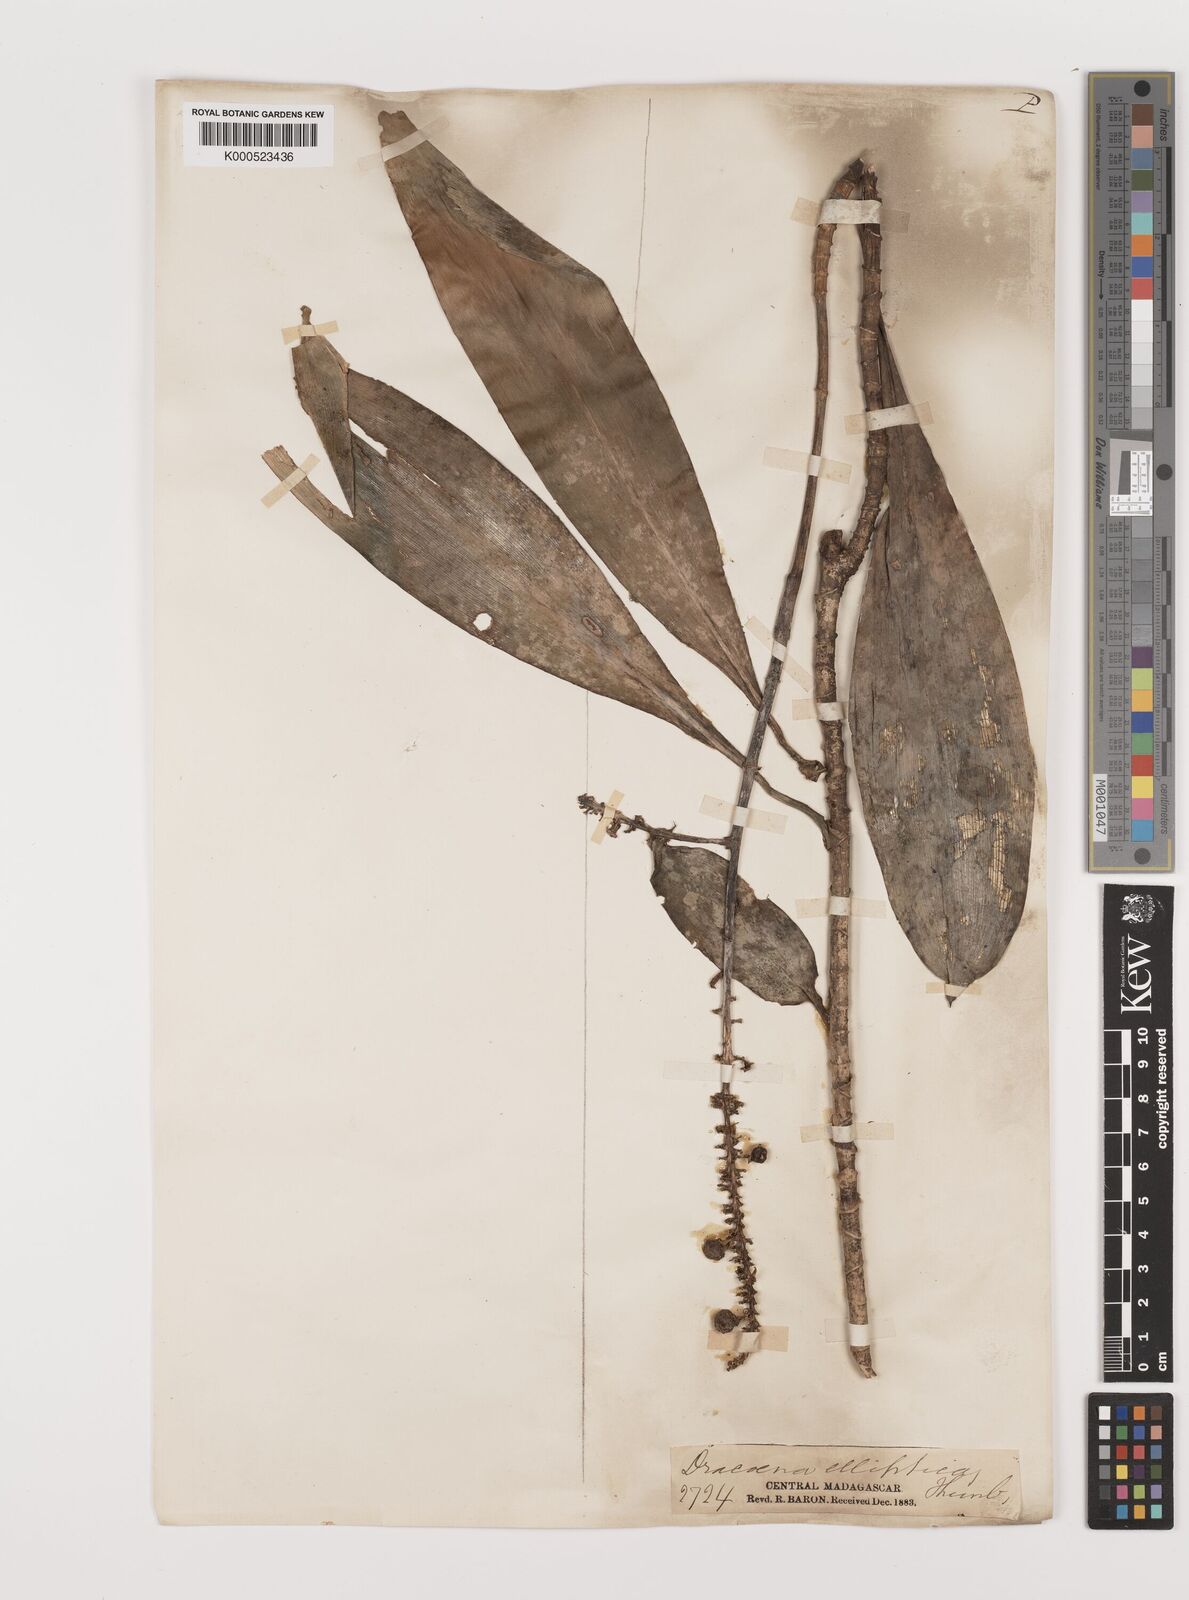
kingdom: Plantae
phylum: Tracheophyta
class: Liliopsida
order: Asparagales
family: Asparagaceae
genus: Dracaena
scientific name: Dracaena elliptica
